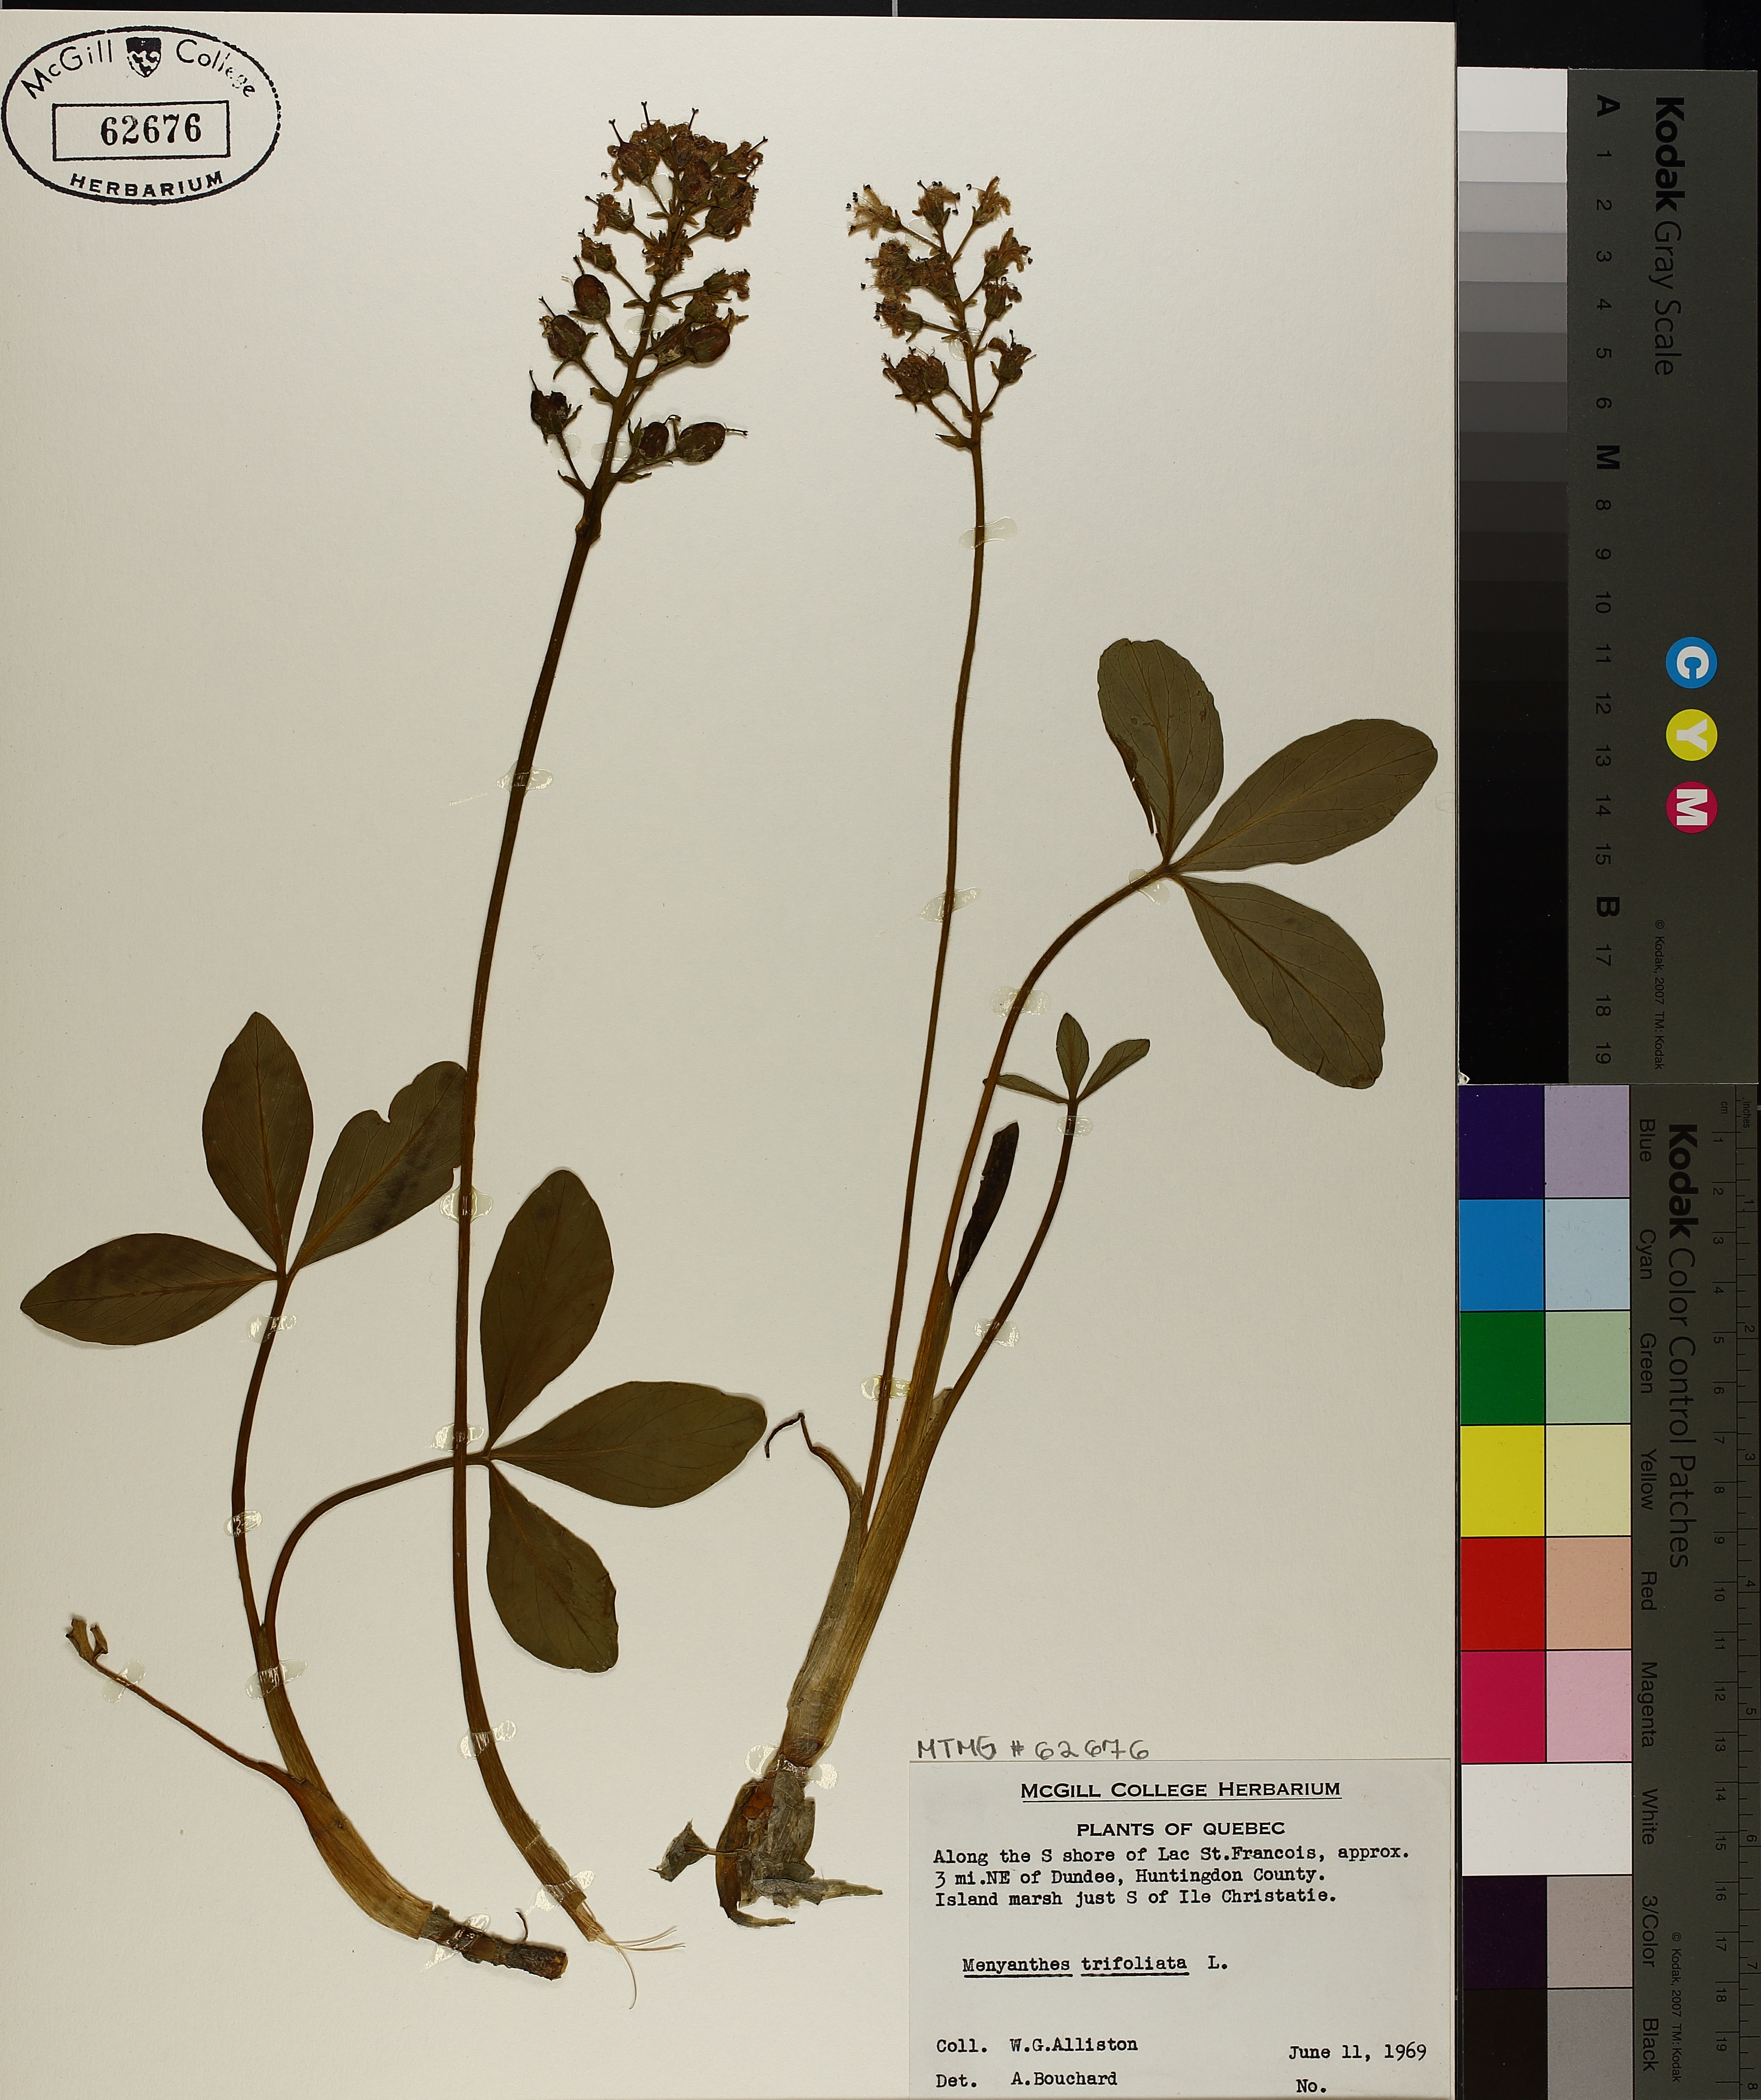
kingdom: Plantae
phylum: Tracheophyta
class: Magnoliopsida
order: Asterales
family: Menyanthaceae
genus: Menyanthes
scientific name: Menyanthes trifoliata
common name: Bogbean
